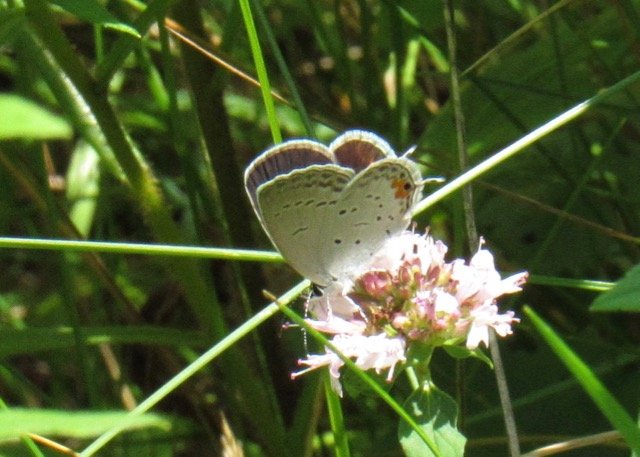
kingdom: Animalia
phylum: Arthropoda
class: Insecta
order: Lepidoptera
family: Lycaenidae
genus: Elkalyce
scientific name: Elkalyce comyntas
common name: Eastern Tailed-Blue
